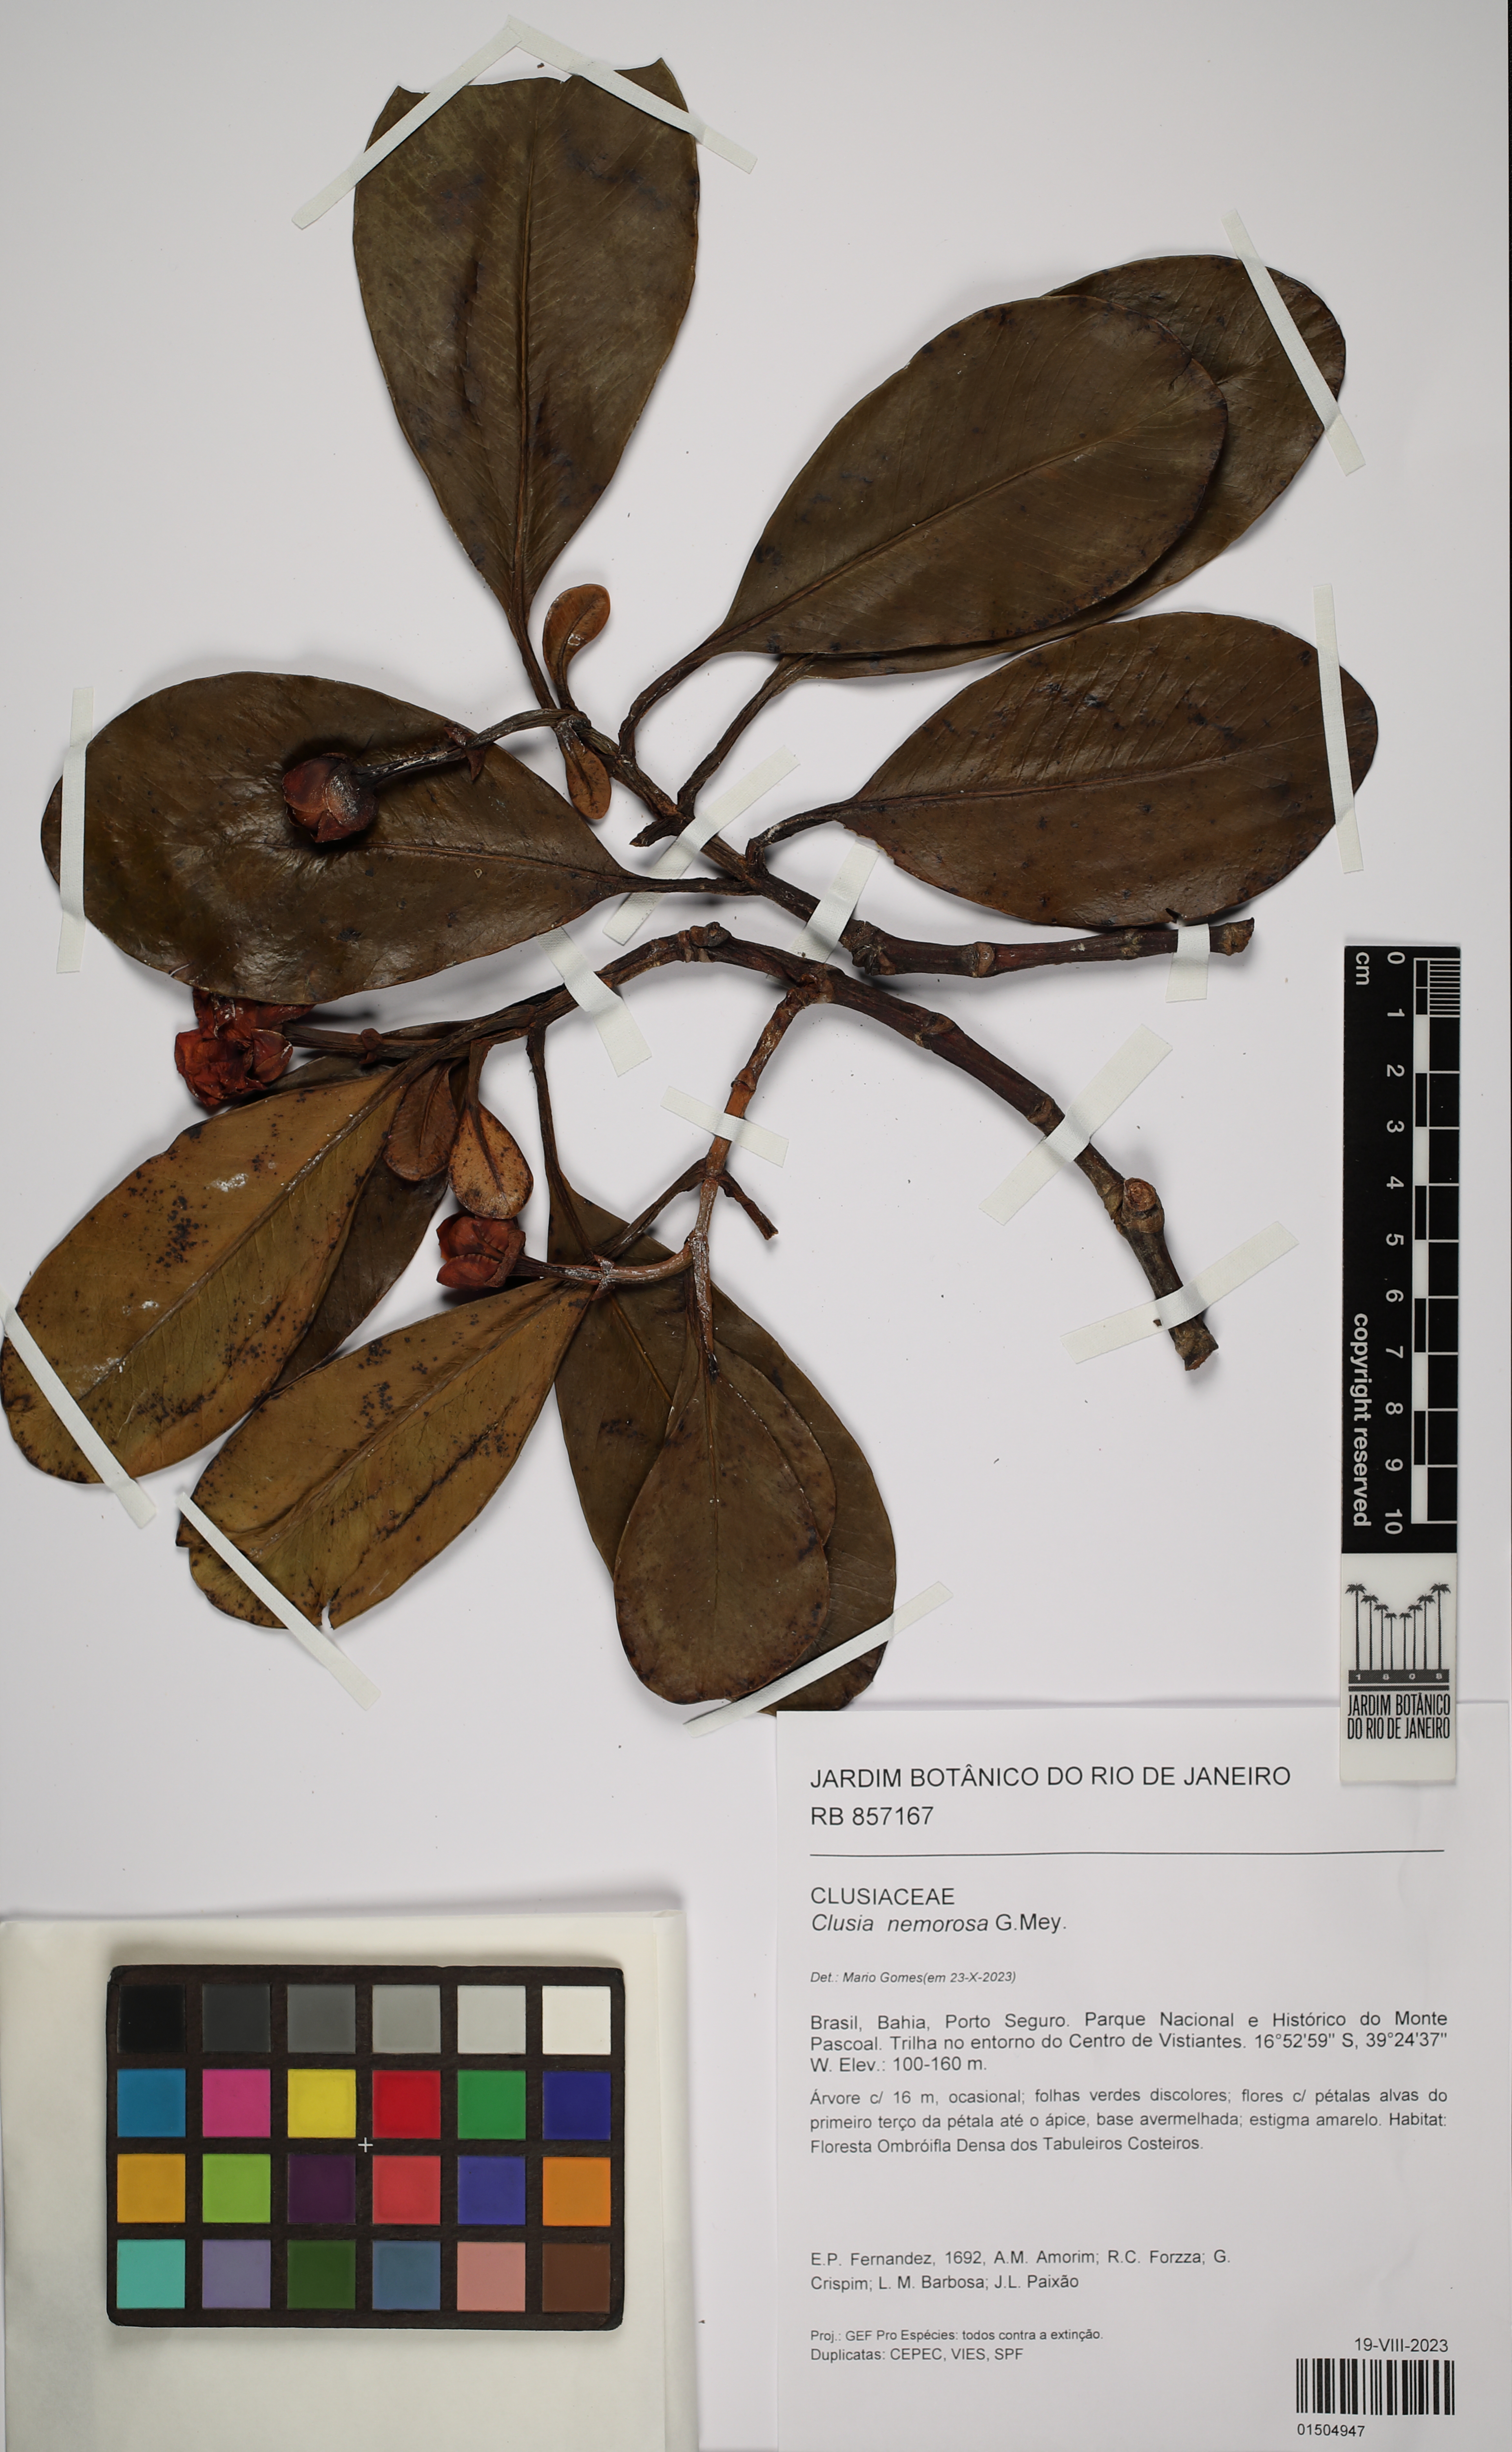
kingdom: Plantae
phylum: Tracheophyta
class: Magnoliopsida
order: Malpighiales
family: Clusiaceae
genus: Clusia
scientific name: Clusia nemorosa
